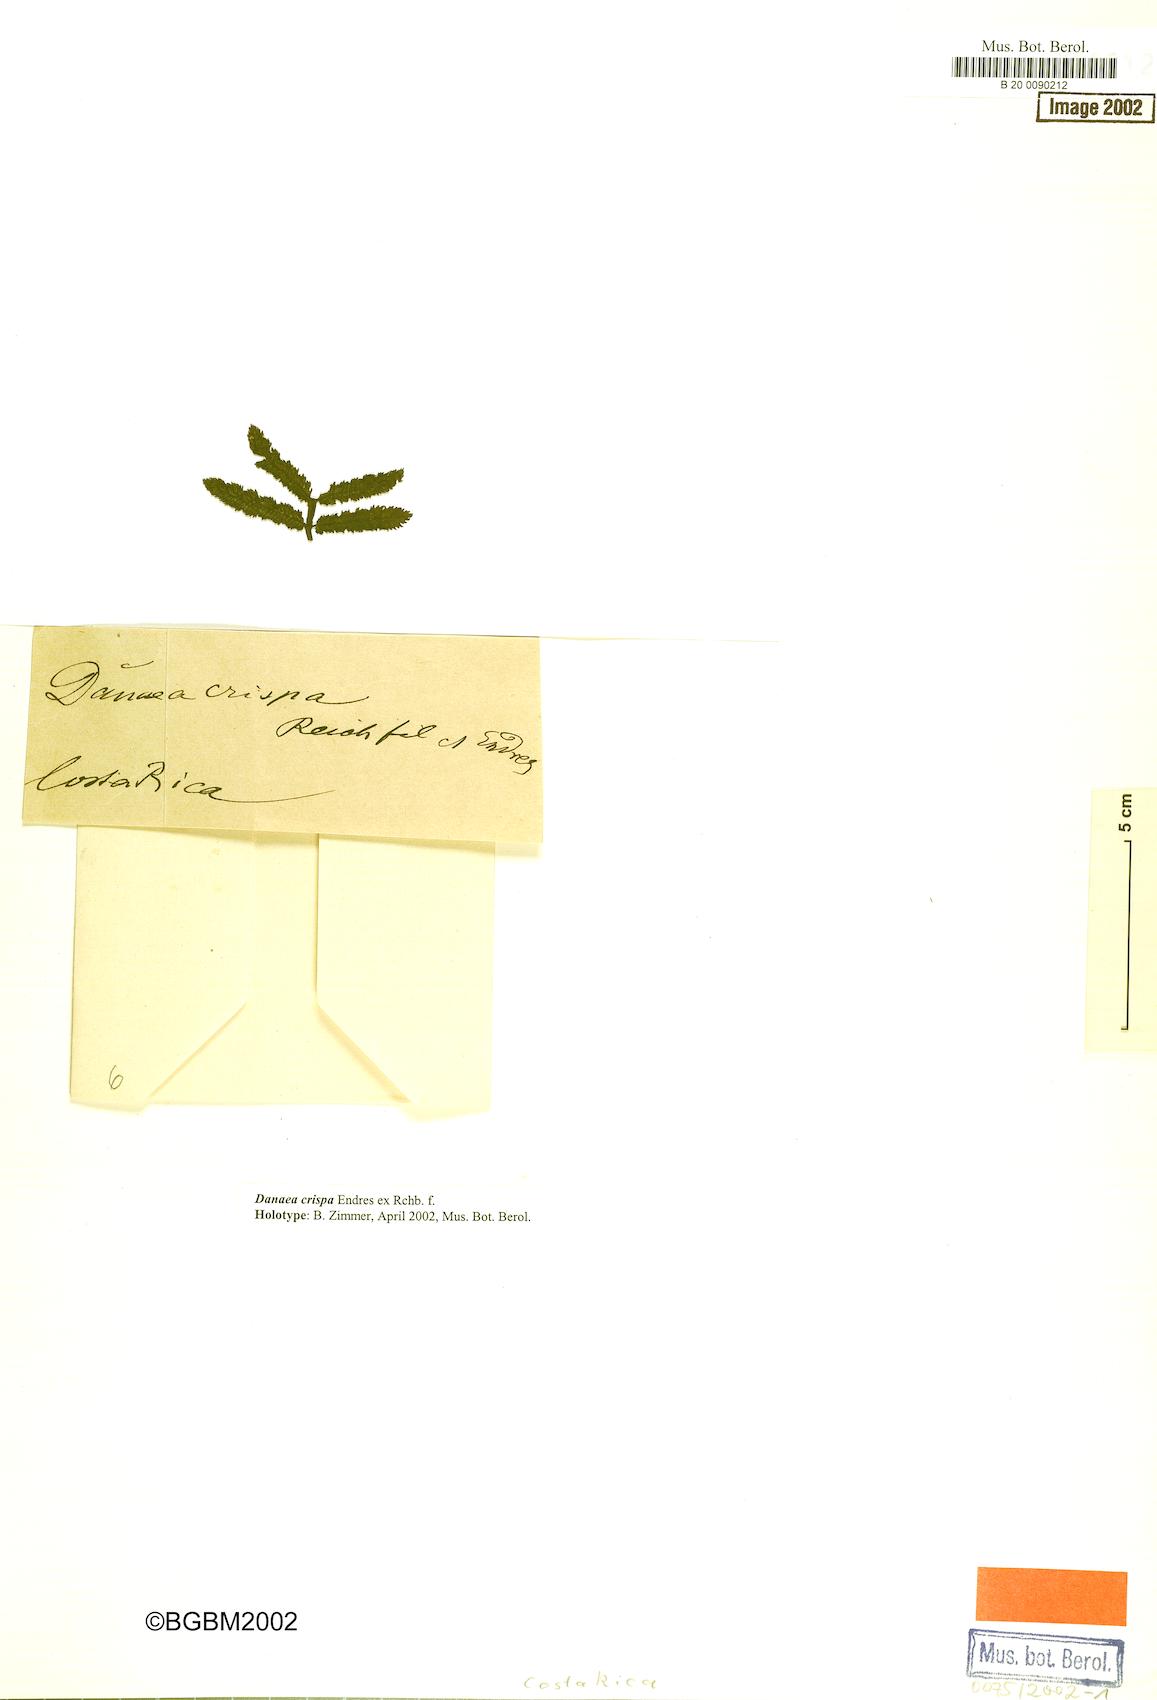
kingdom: Plantae
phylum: Tracheophyta
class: Polypodiopsida
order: Marattiales
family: Marattiaceae
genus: Danaea
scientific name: Danaea crispa
